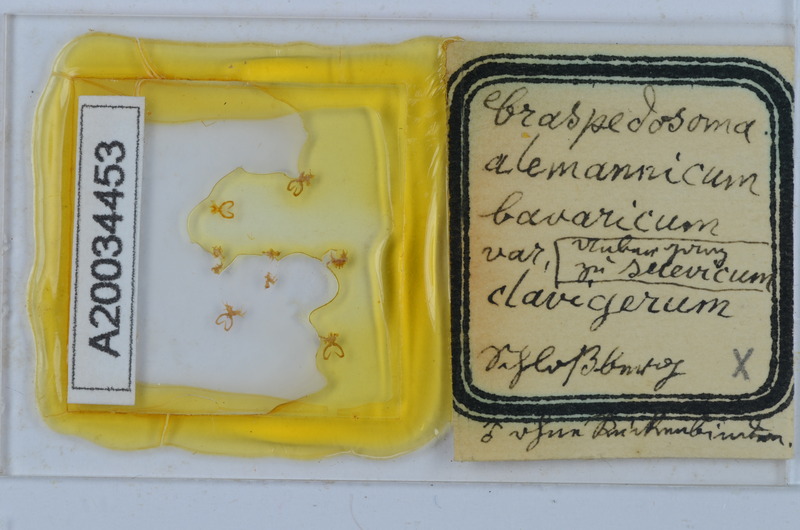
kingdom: Animalia
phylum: Arthropoda
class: Diplopoda
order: Chordeumatida
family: Craspedosomatidae
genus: Craspedosoma
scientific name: Craspedosoma rawlinsii
